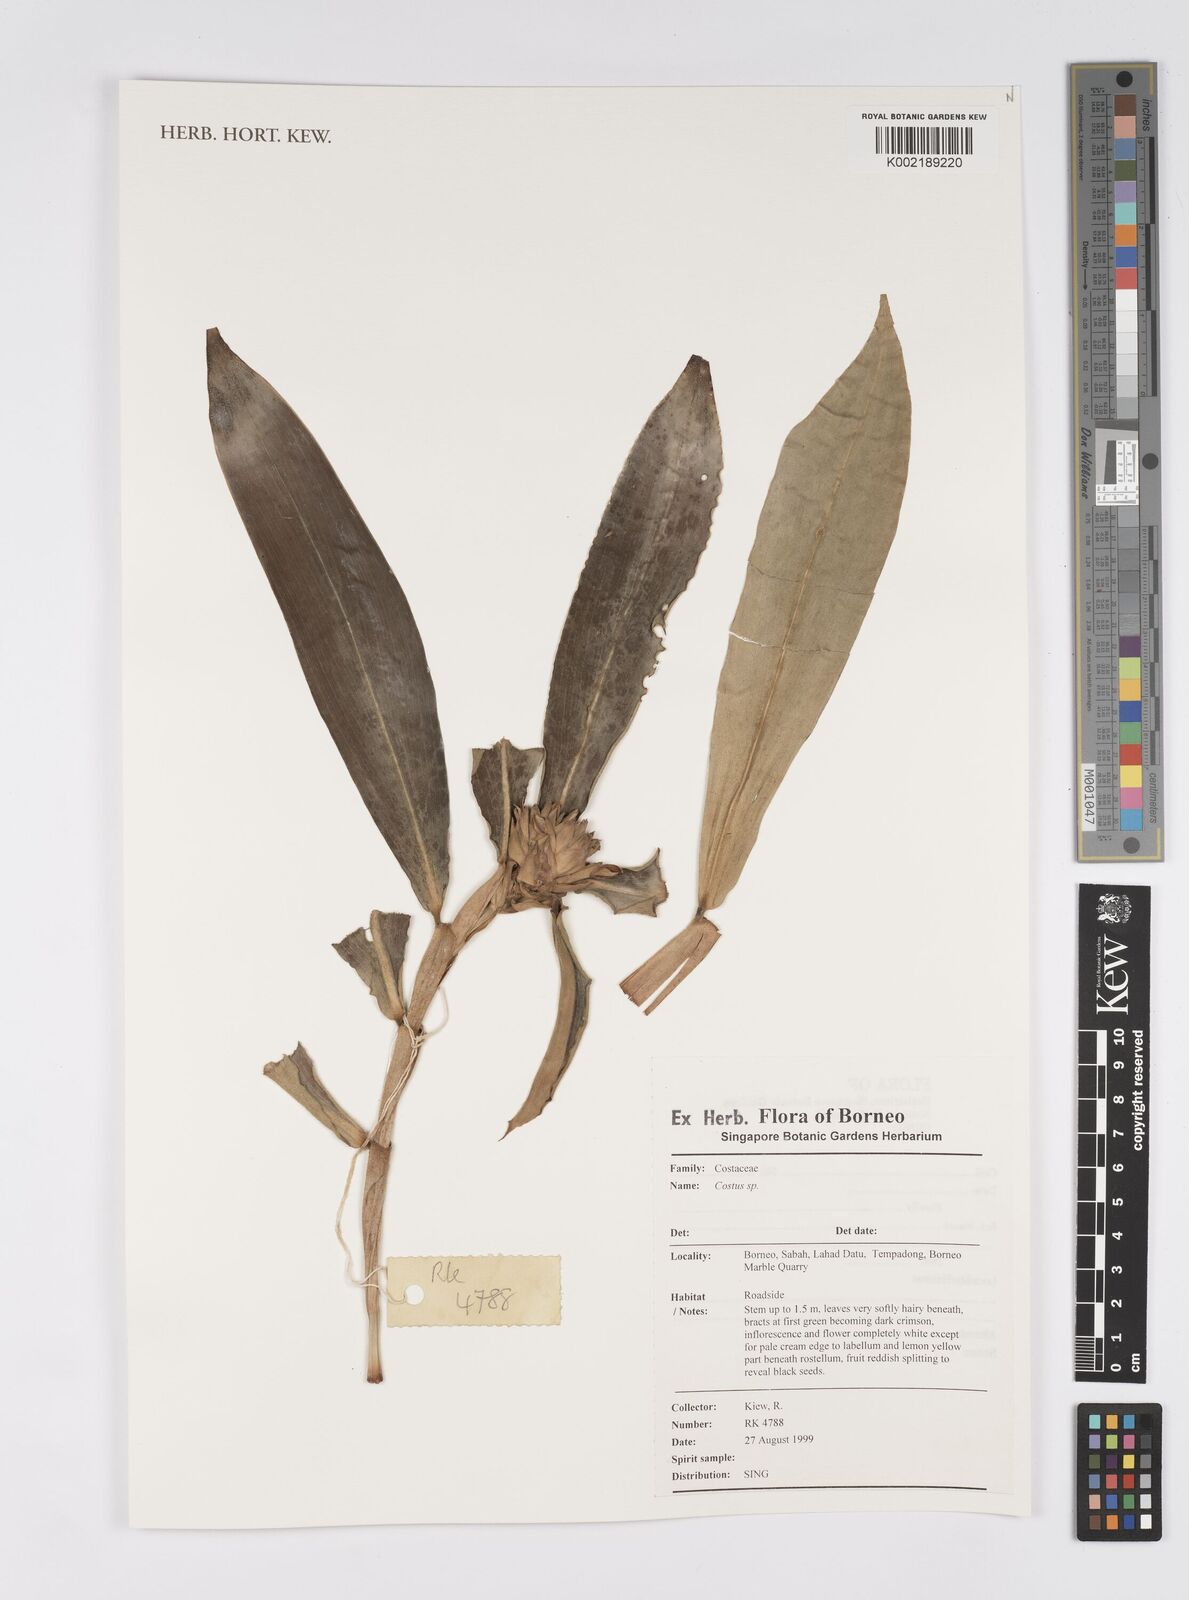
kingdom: Plantae
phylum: Tracheophyta
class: Liliopsida
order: Zingiberales
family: Costaceae
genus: Costus
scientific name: Costus
